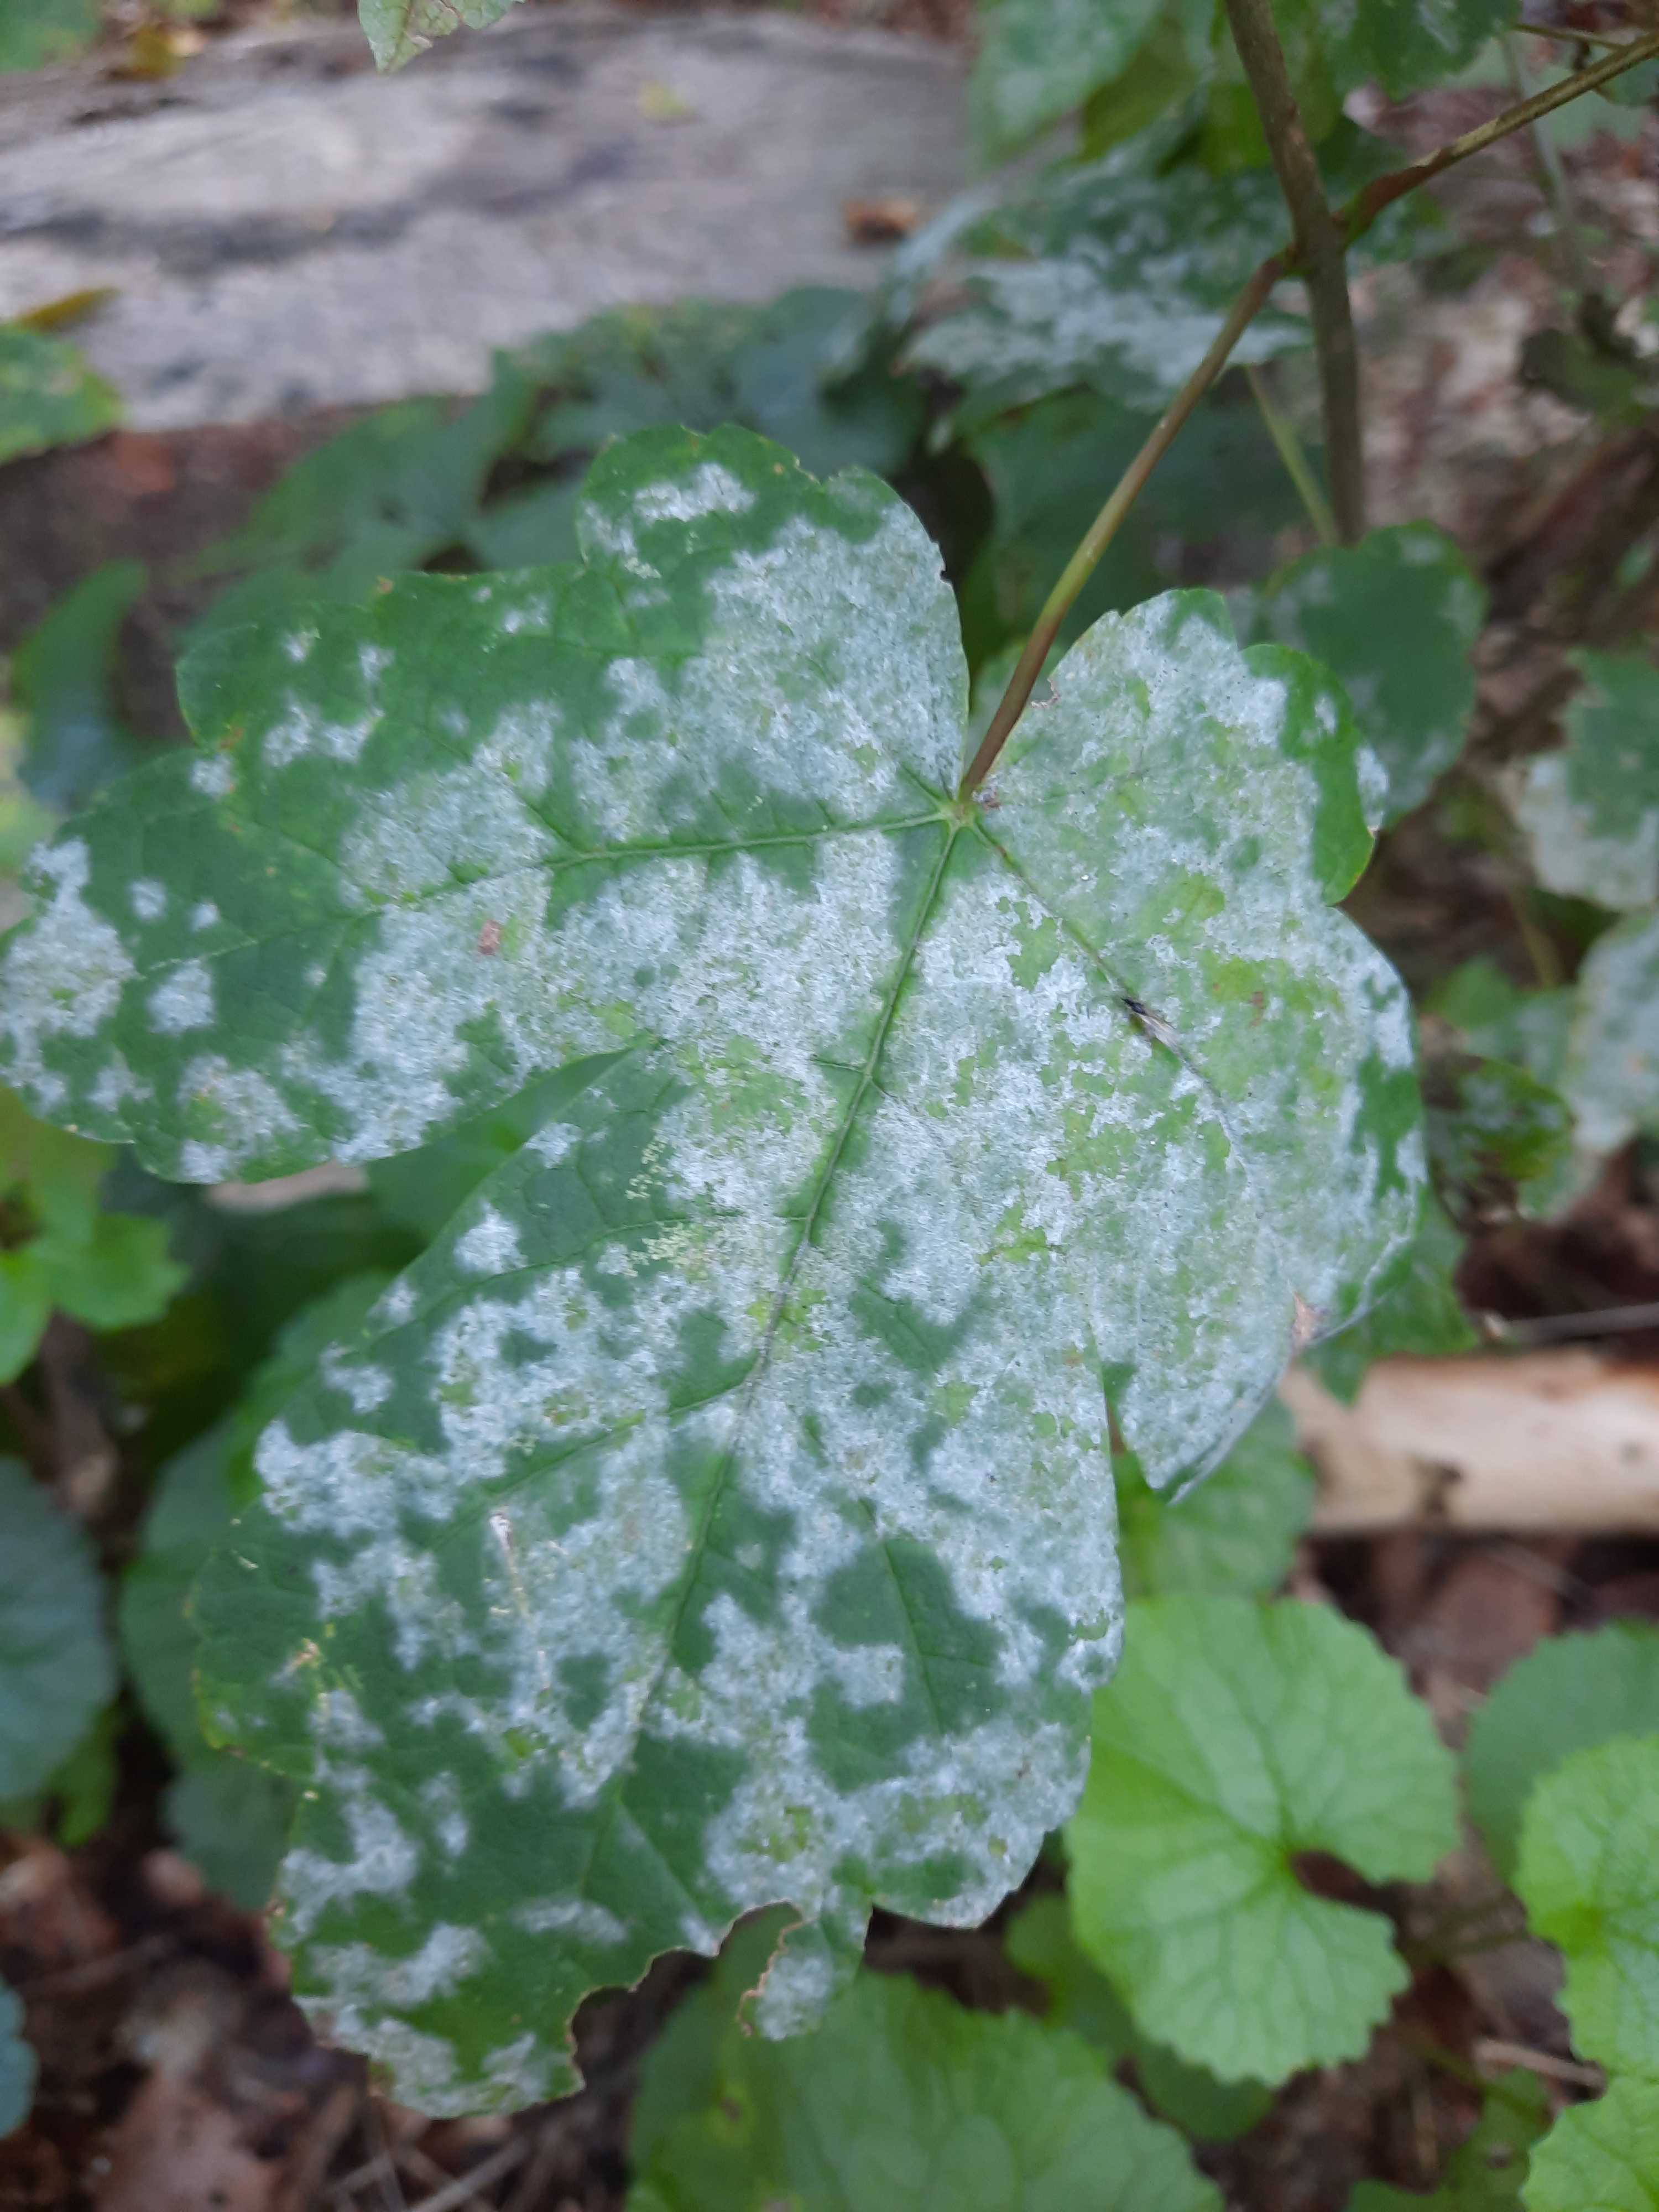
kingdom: Fungi
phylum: Ascomycota
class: Leotiomycetes
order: Helotiales
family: Erysiphaceae
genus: Sawadaea
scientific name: Sawadaea
